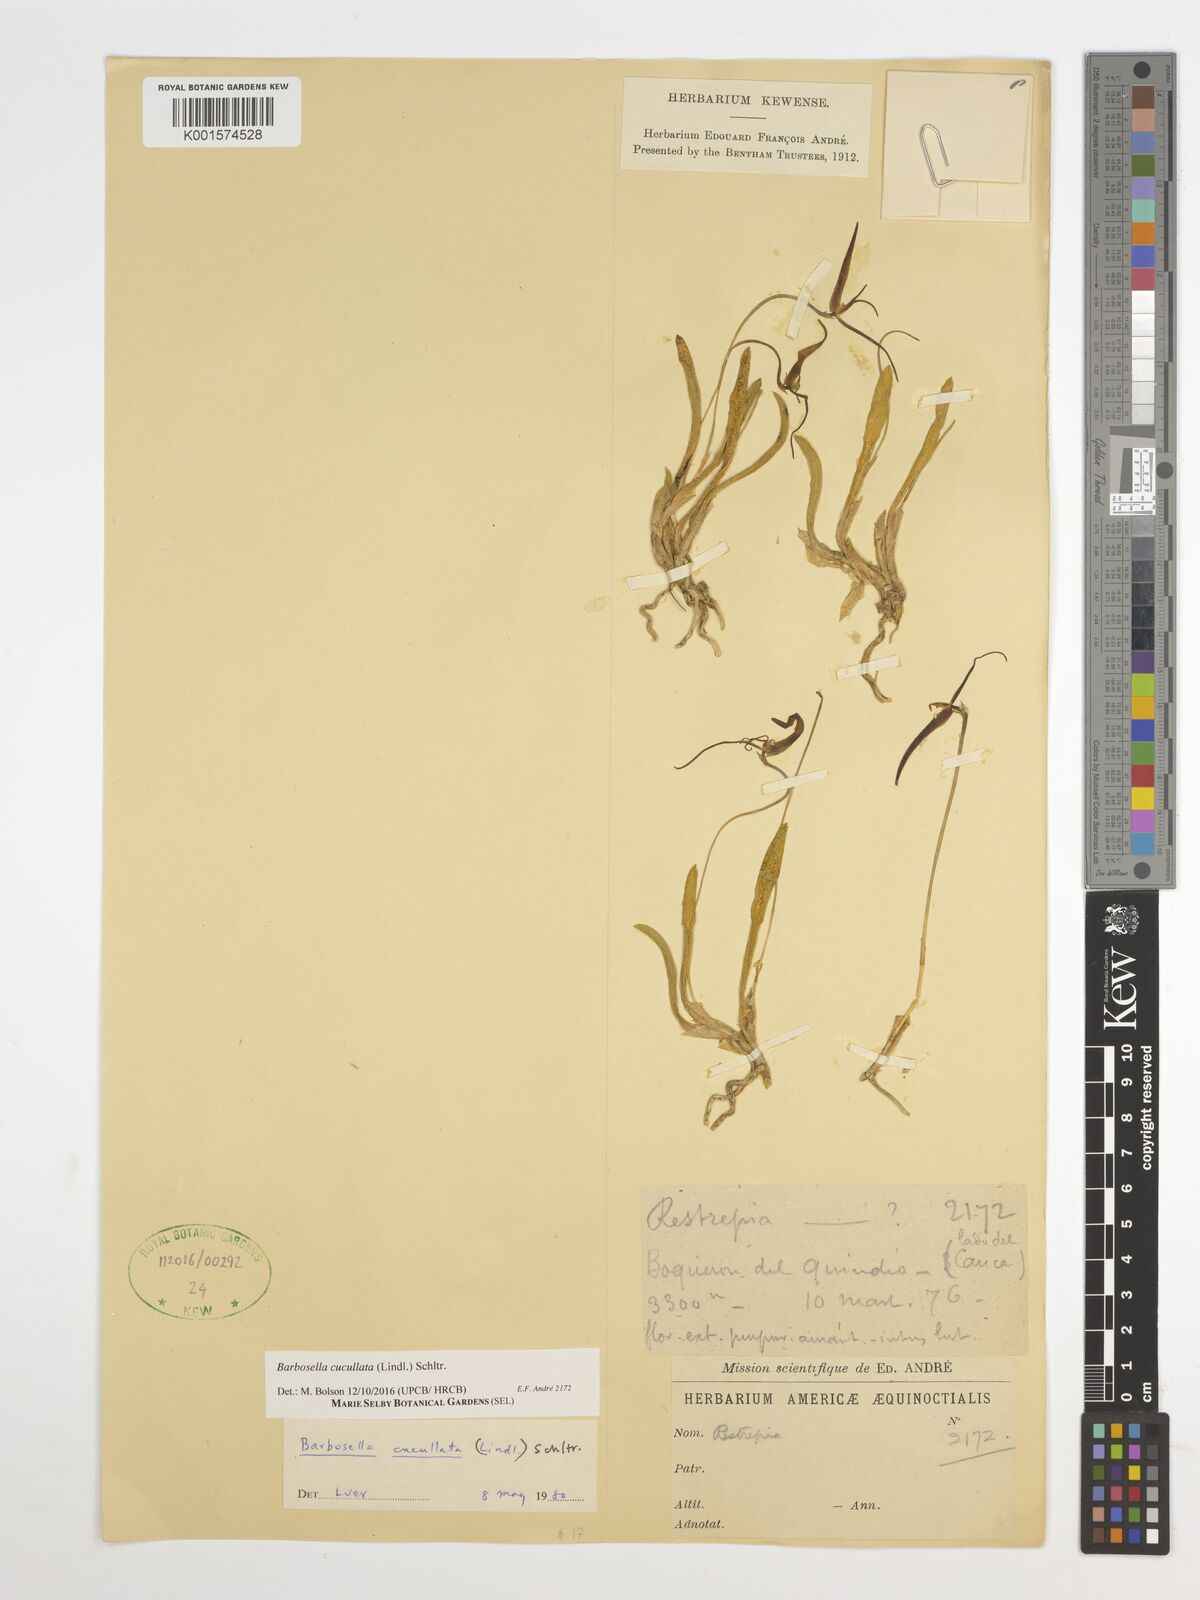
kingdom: Plantae
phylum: Tracheophyta
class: Liliopsida
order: Asparagales
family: Orchidaceae
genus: Barbosella
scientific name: Barbosella cucullata
